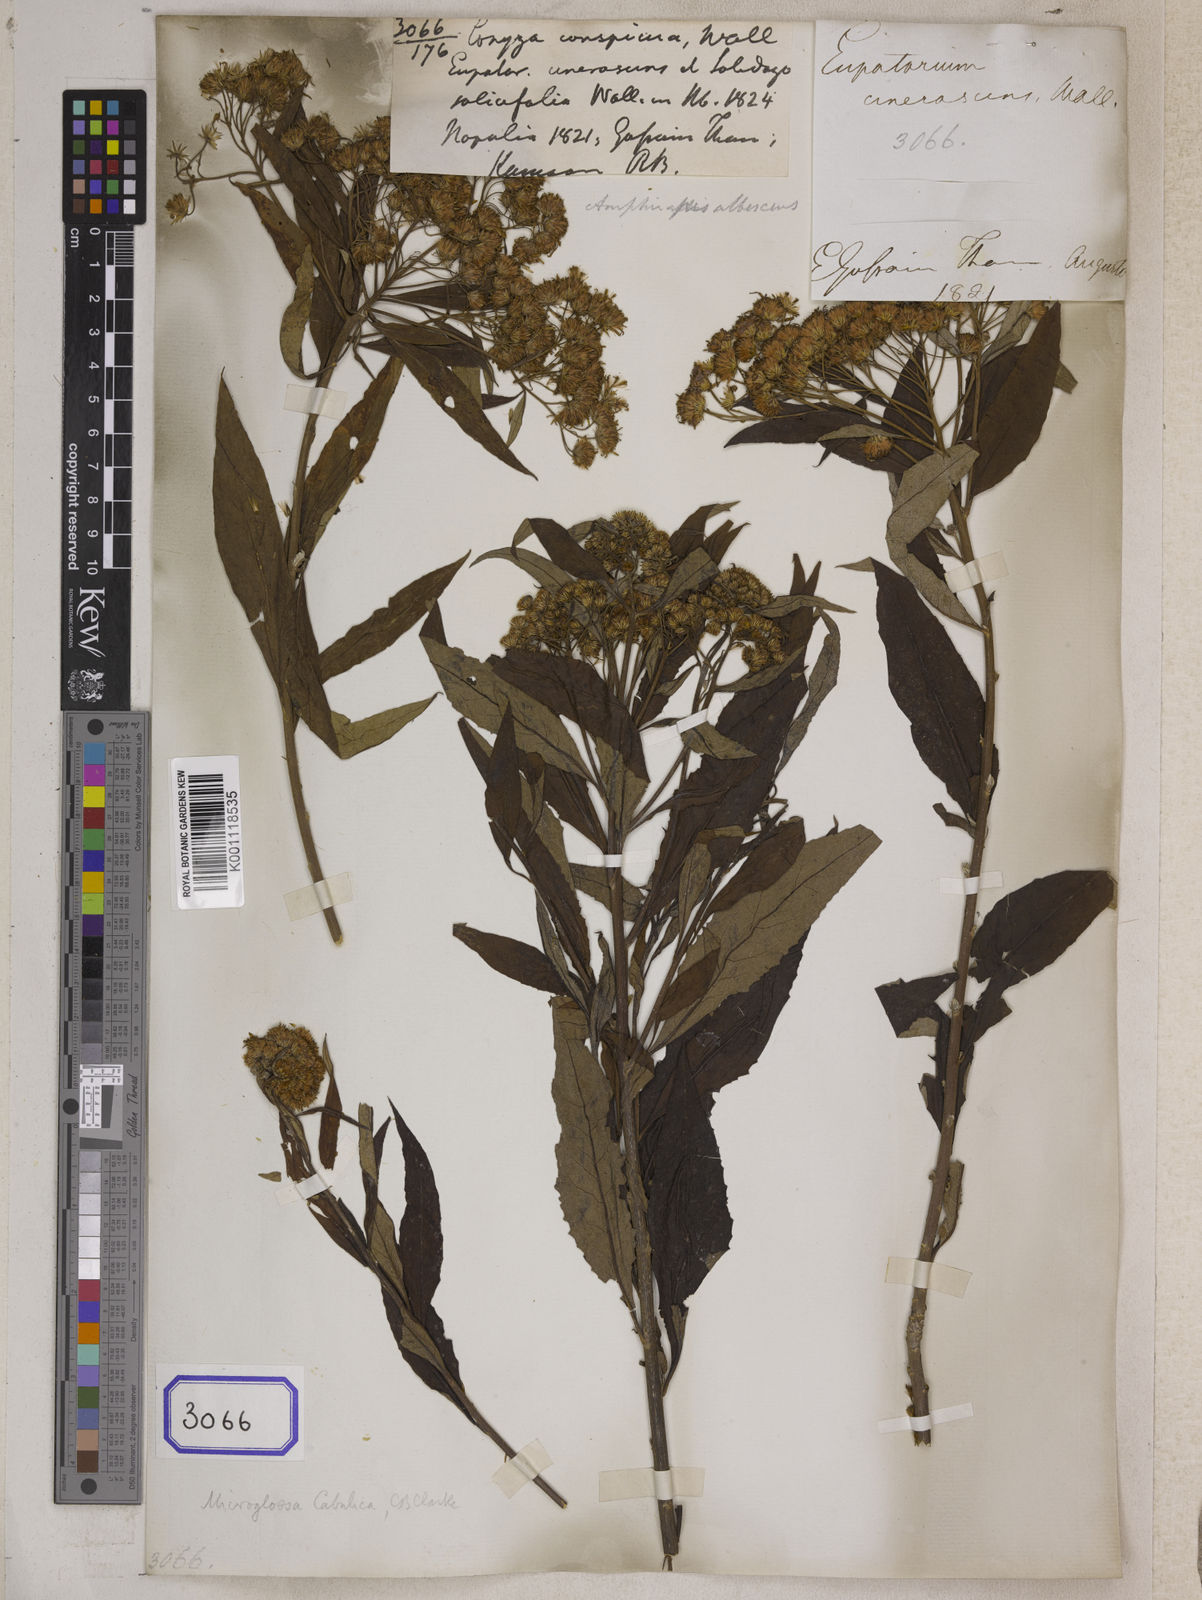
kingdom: Plantae
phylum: Tracheophyta
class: Magnoliopsida
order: Asterales
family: Asteraceae
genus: Sinosidus
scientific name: Sinosidus albescens
